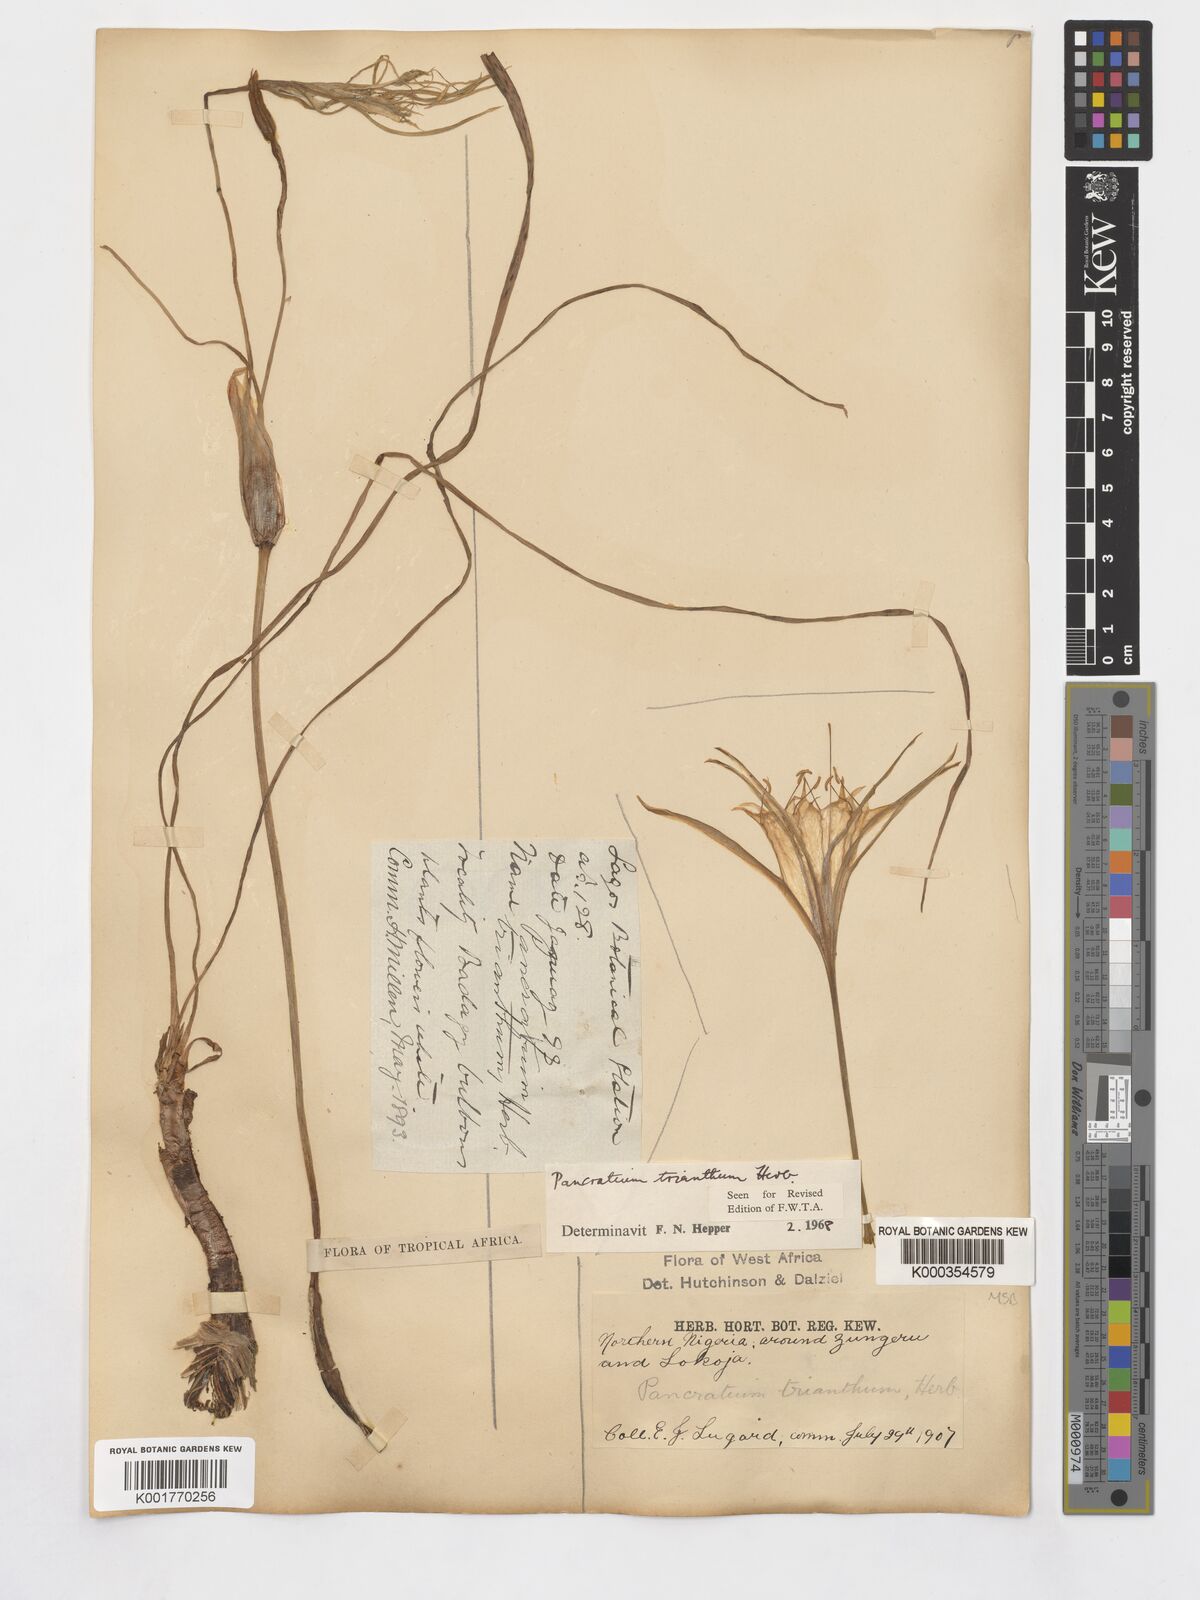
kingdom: Plantae
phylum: Tracheophyta
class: Liliopsida
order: Asparagales
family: Amaryllidaceae
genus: Pancratium
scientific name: Pancratium trianthum
